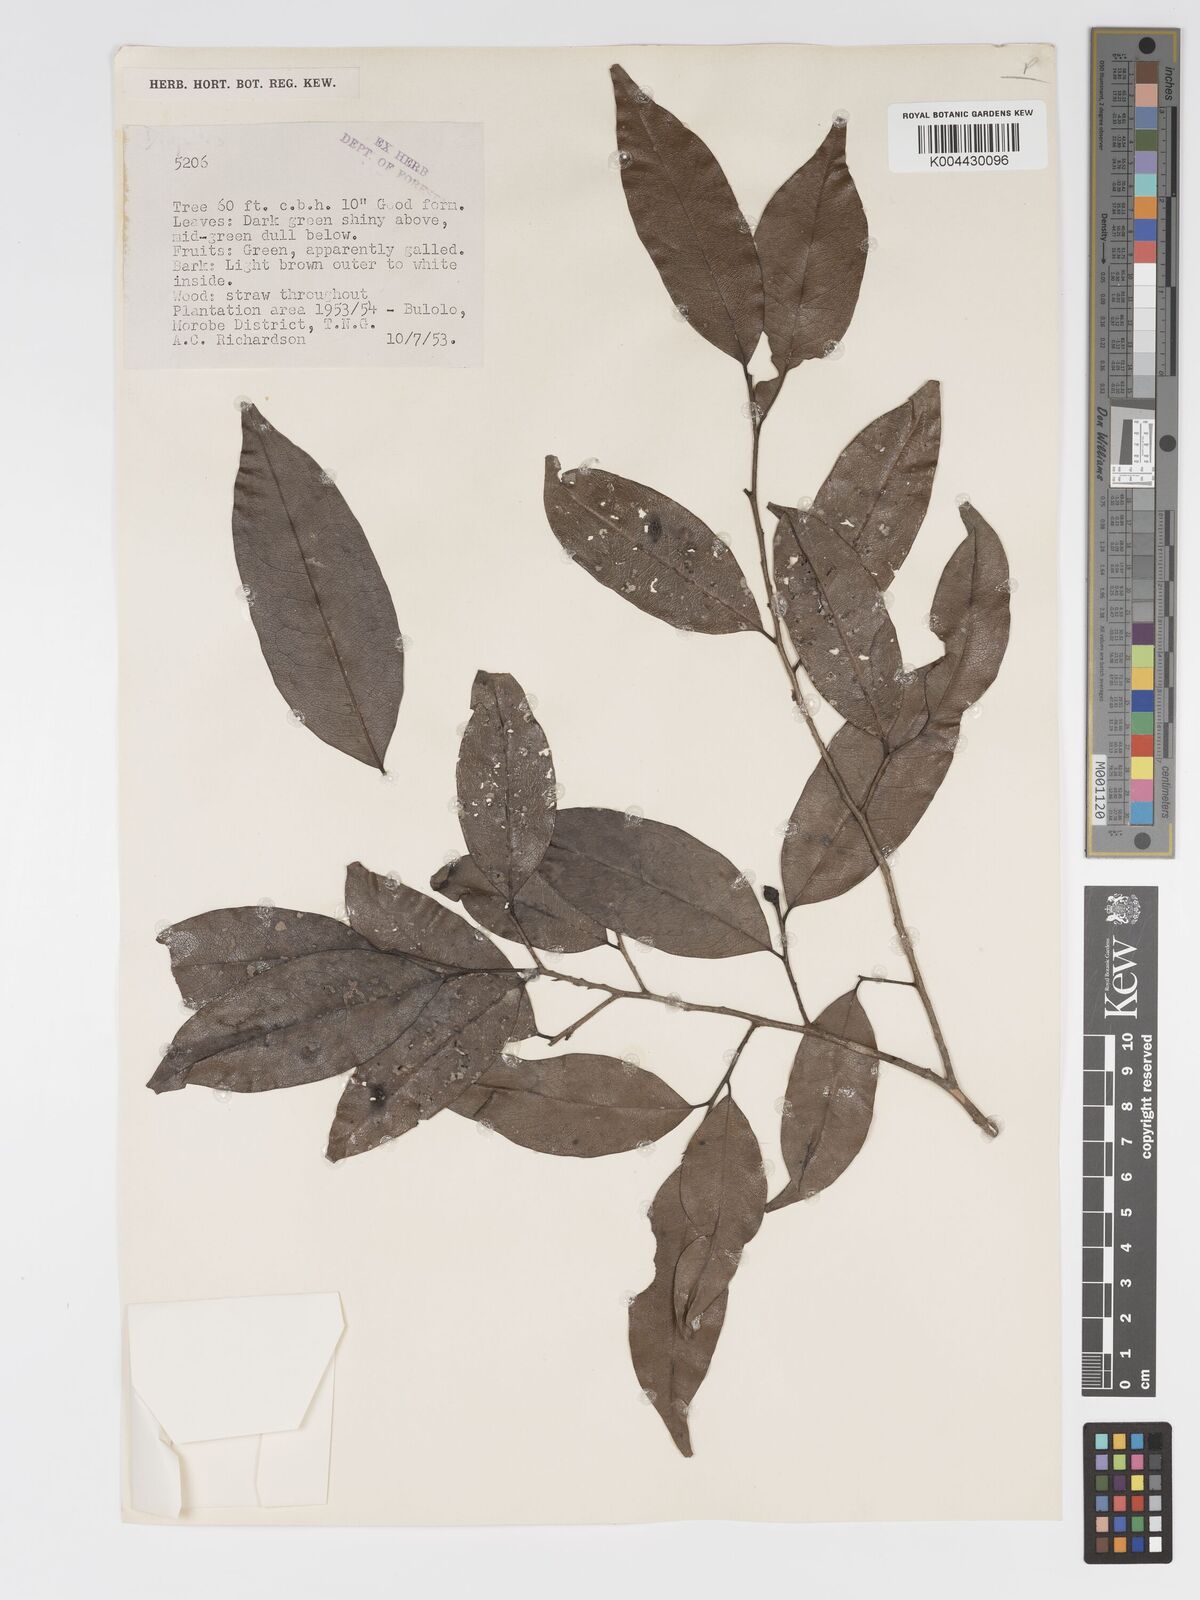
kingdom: Plantae
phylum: Tracheophyta
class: Magnoliopsida
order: Malpighiales
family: Putranjivaceae
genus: Drypetes
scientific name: Drypetes lasiogynoides
